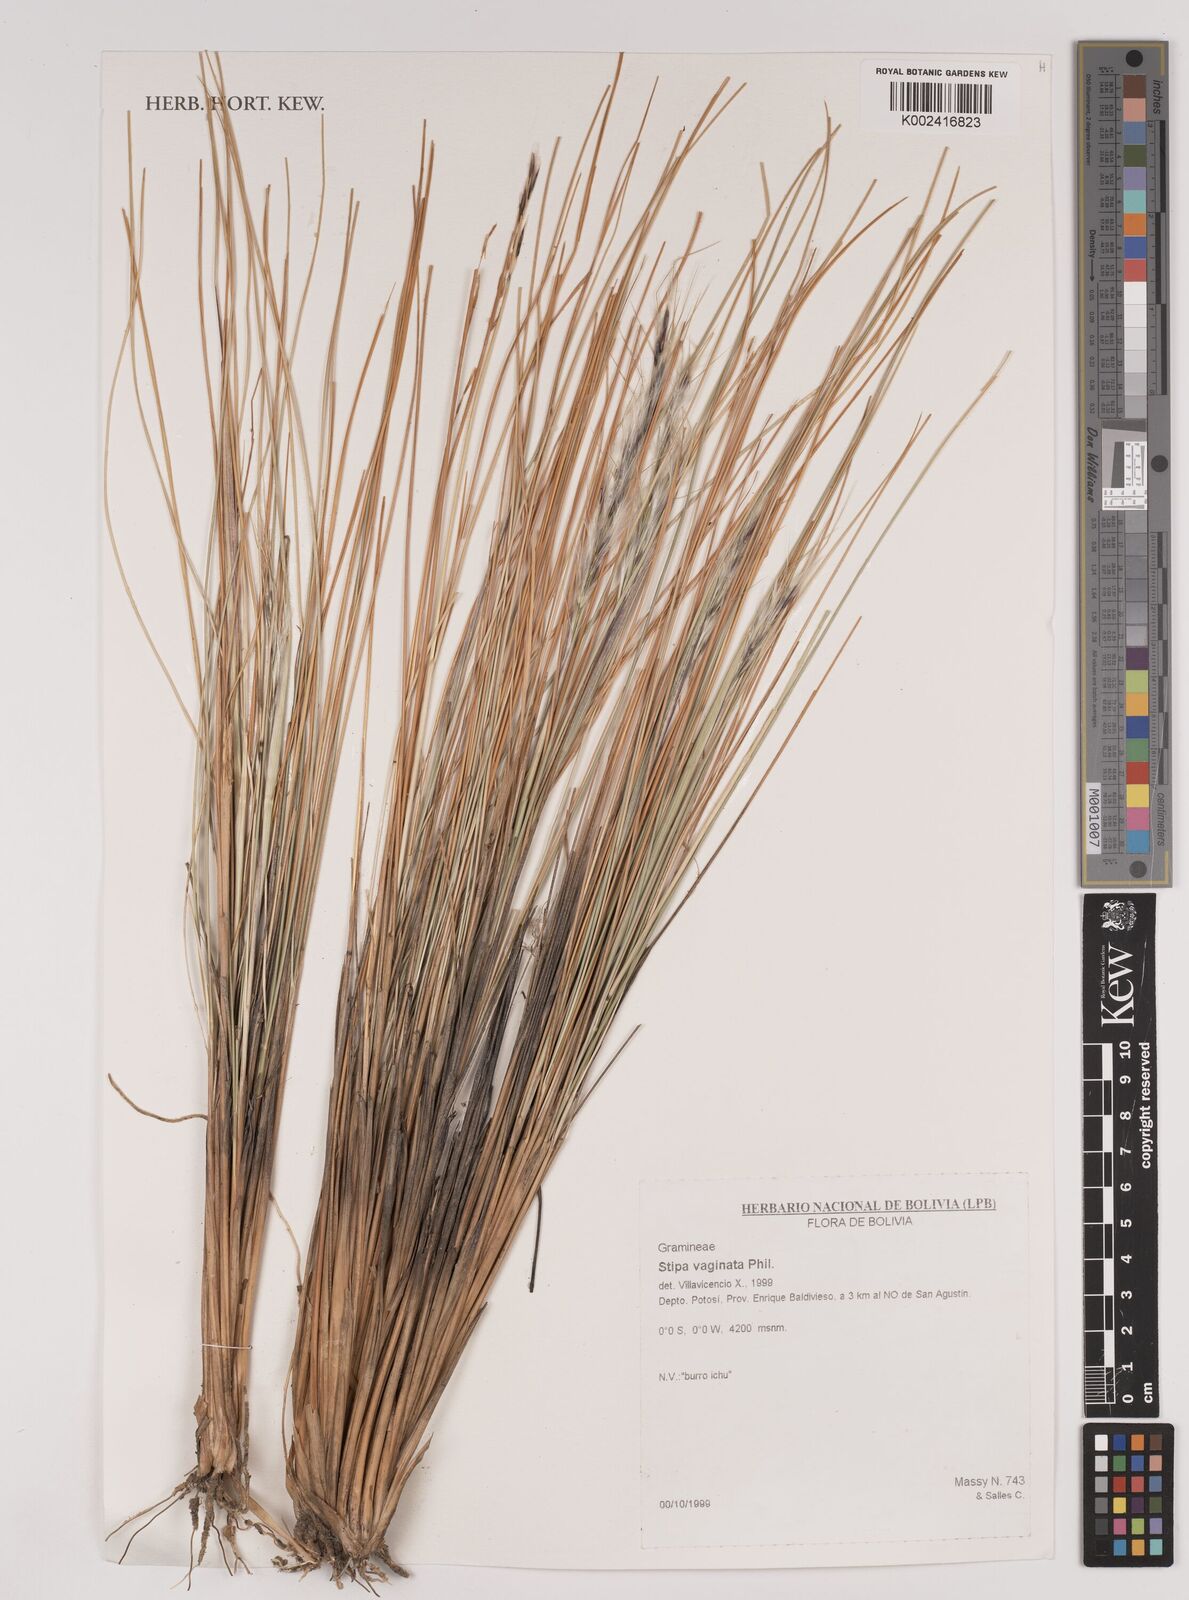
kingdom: Plantae
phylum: Tracheophyta
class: Liliopsida
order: Poales
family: Poaceae
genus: Pappostipa
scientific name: Pappostipa vaginata
